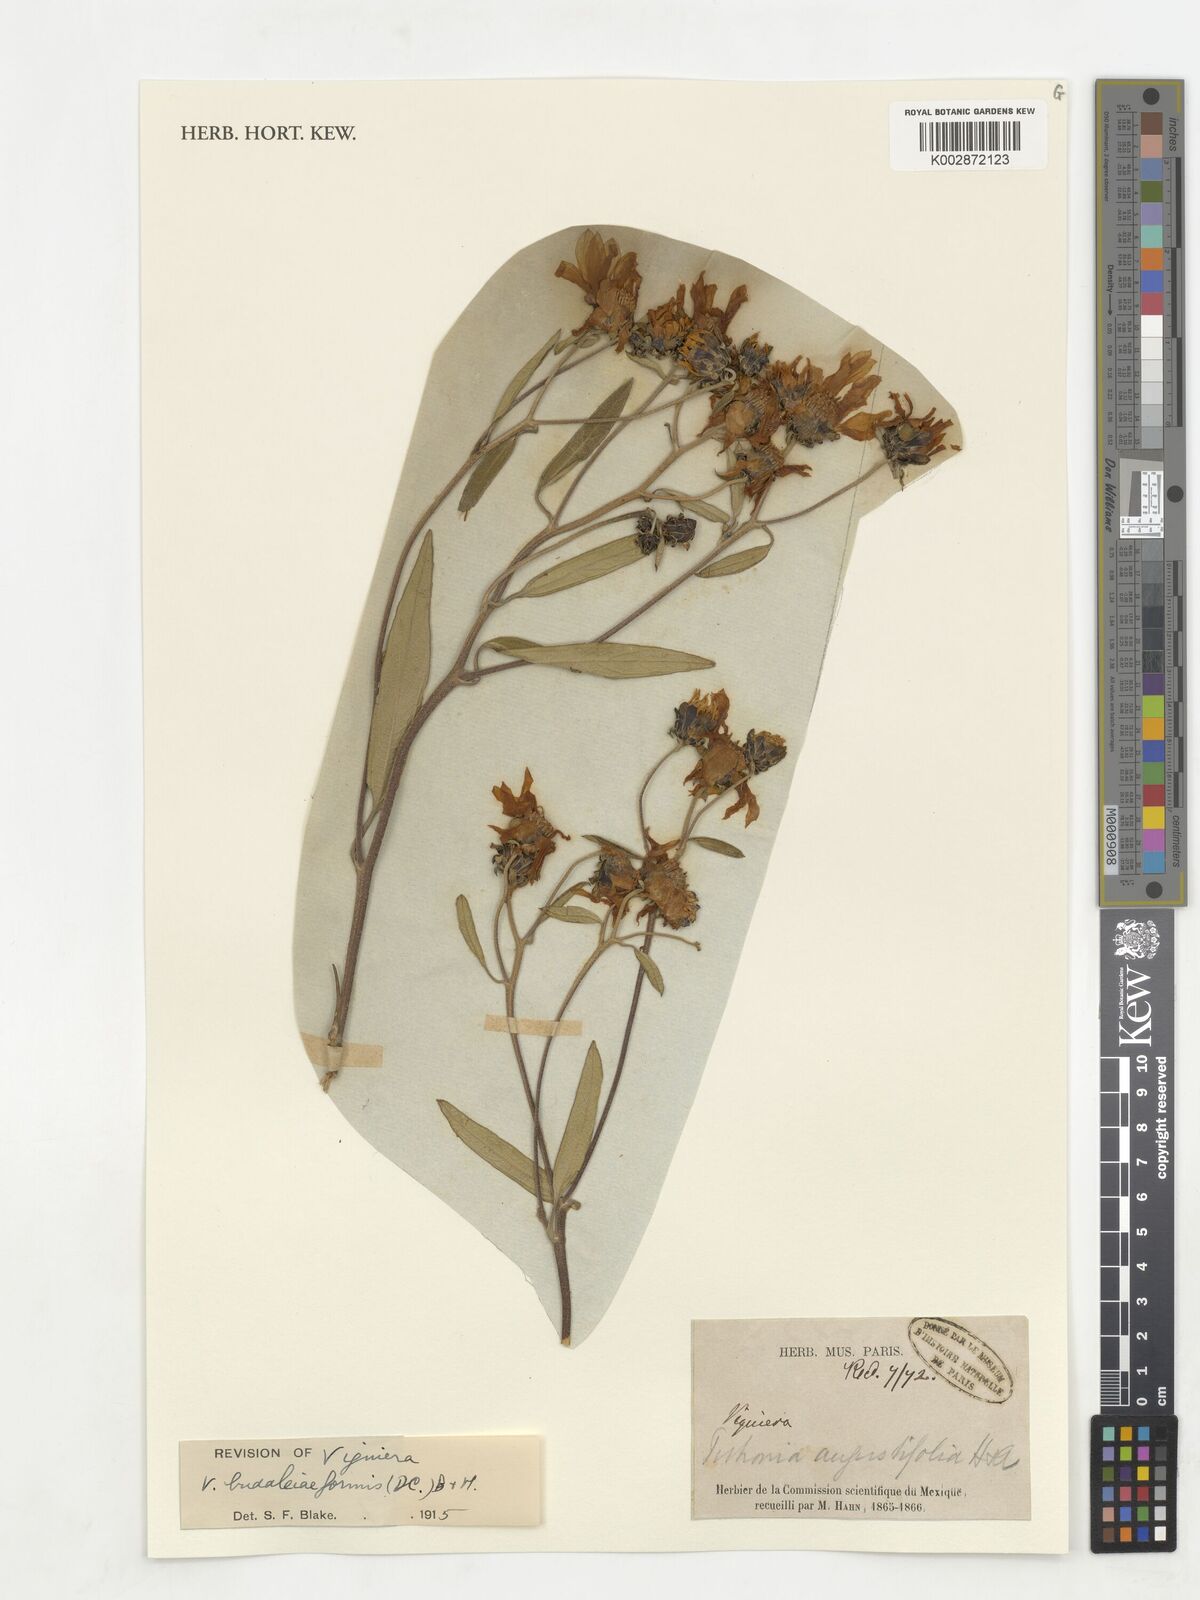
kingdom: Plantae
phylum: Tracheophyta
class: Magnoliopsida
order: Asterales
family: Asteraceae
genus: Aldama
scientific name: Aldama buddlejiformis
